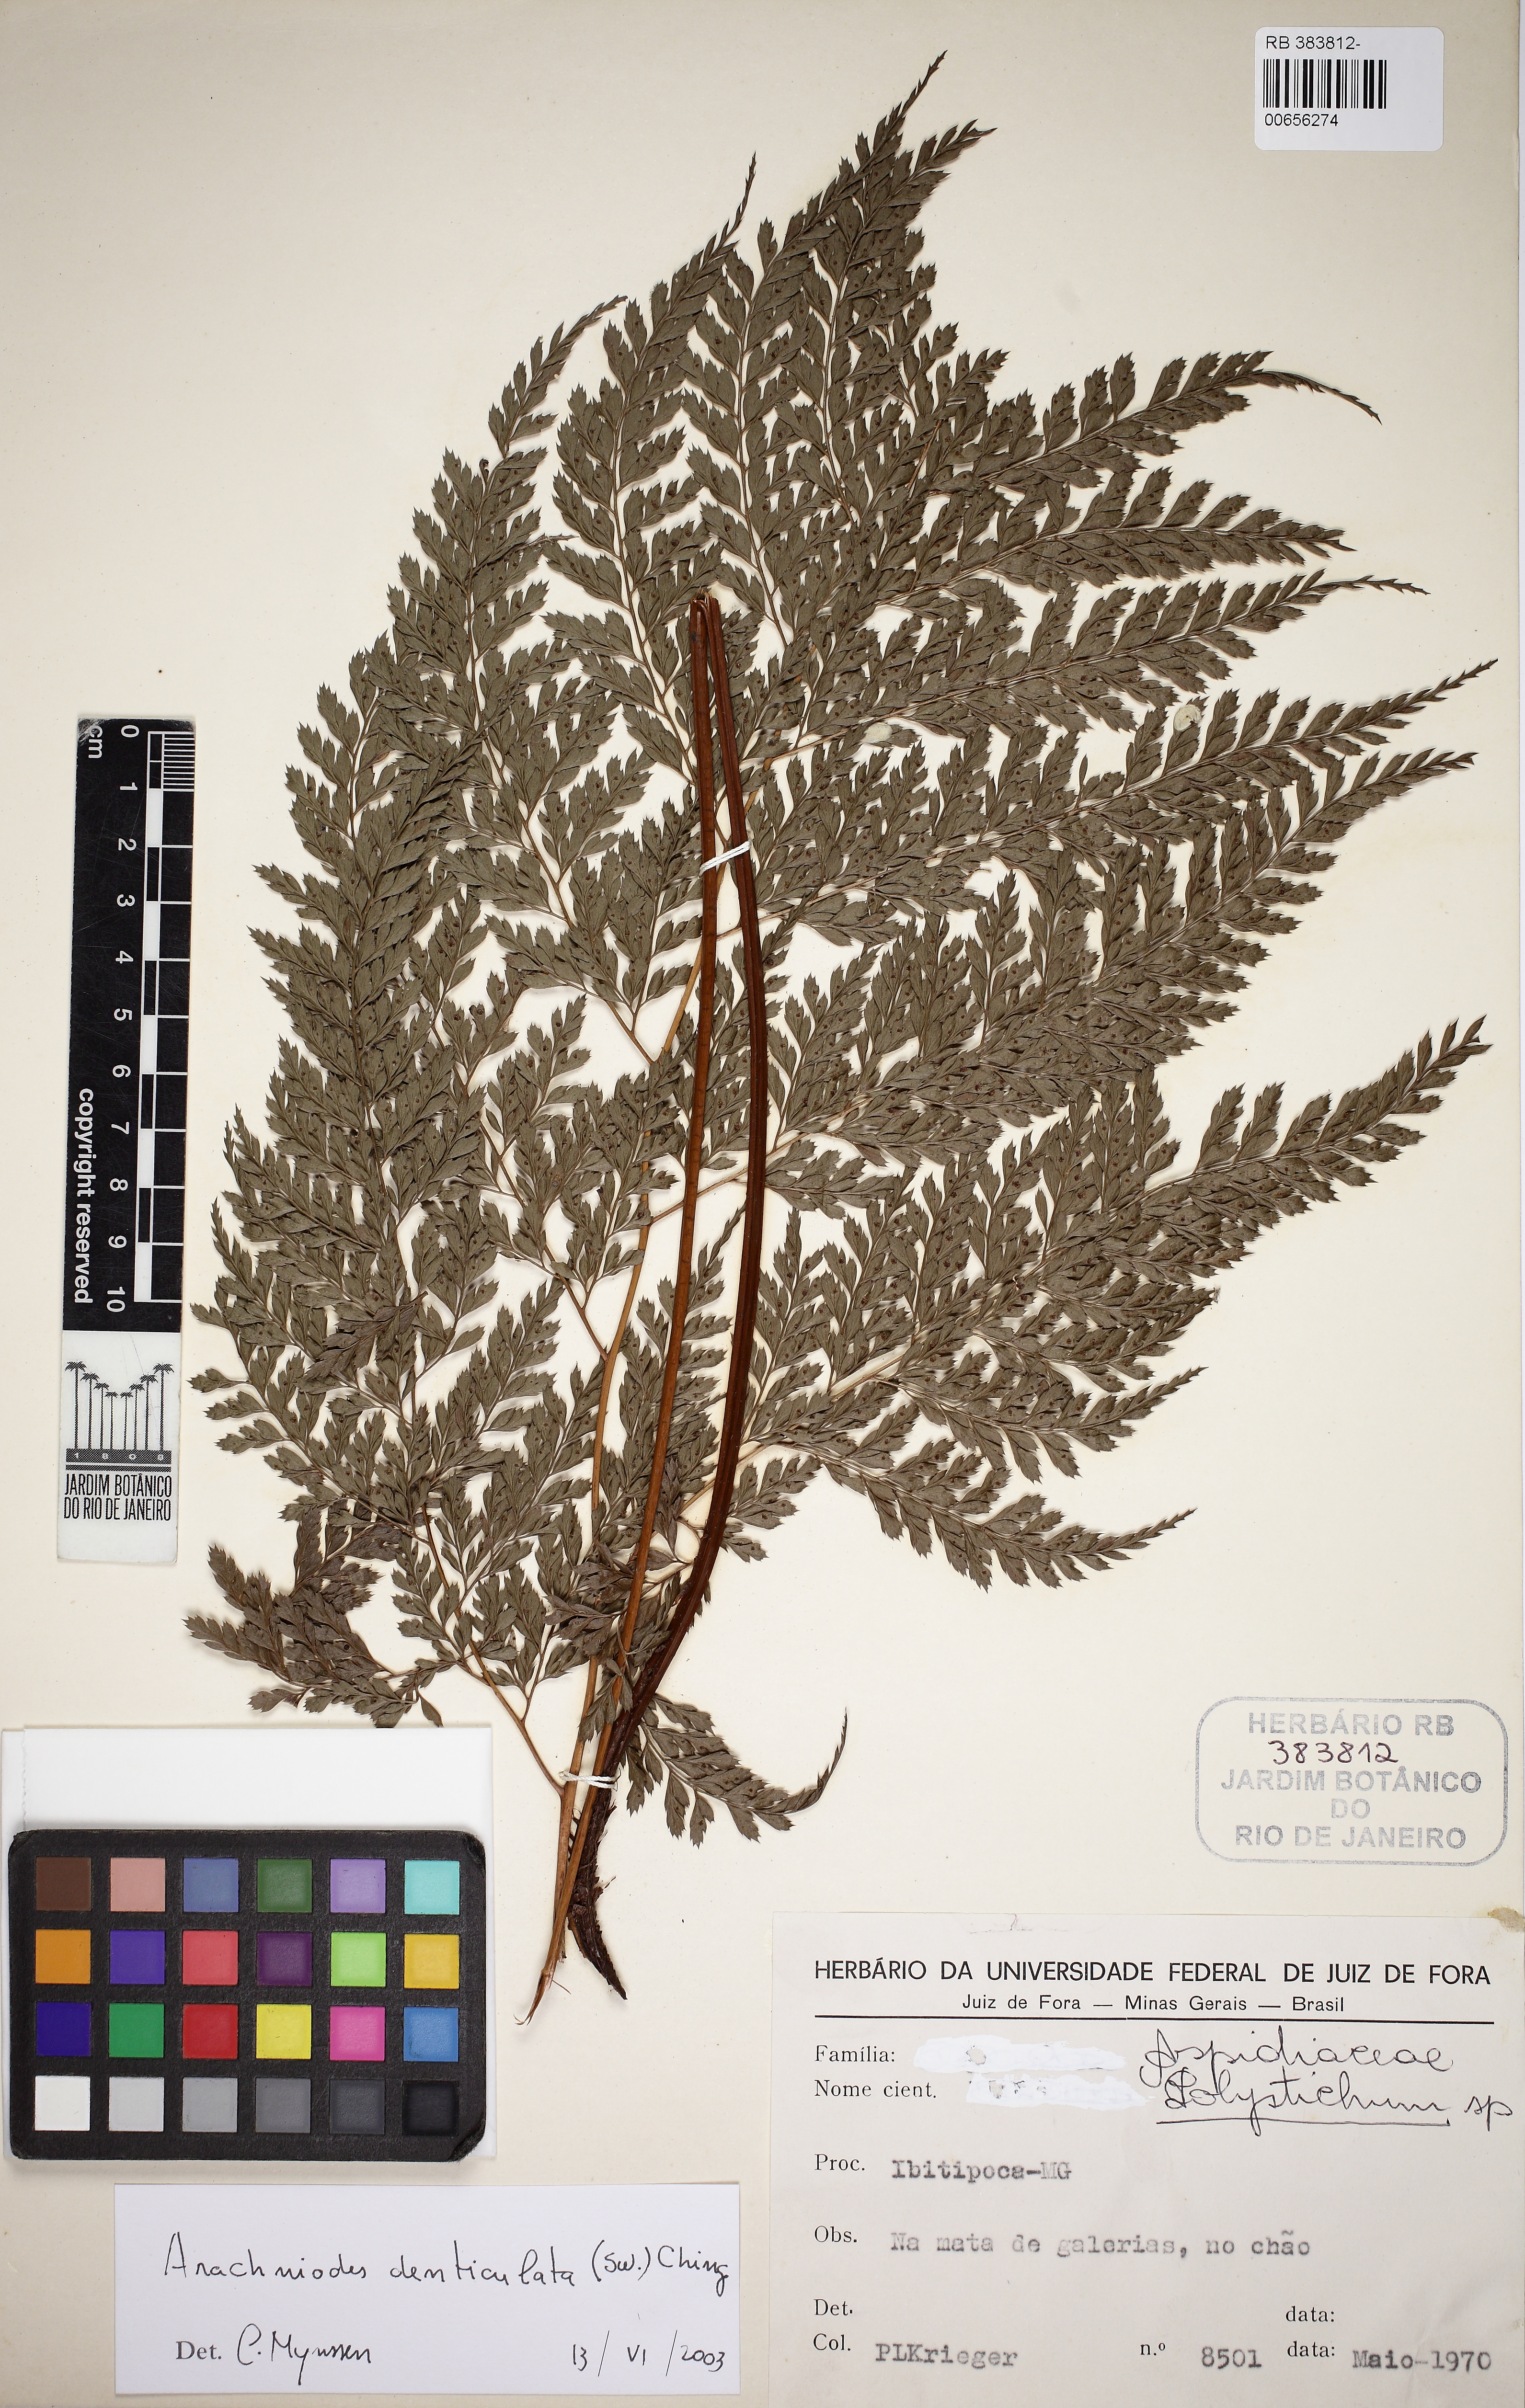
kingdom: Plantae
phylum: Tracheophyta
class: Polypodiopsida
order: Polypodiales
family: Dryopteridaceae
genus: Arachniodes
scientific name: Arachniodes denticulata
